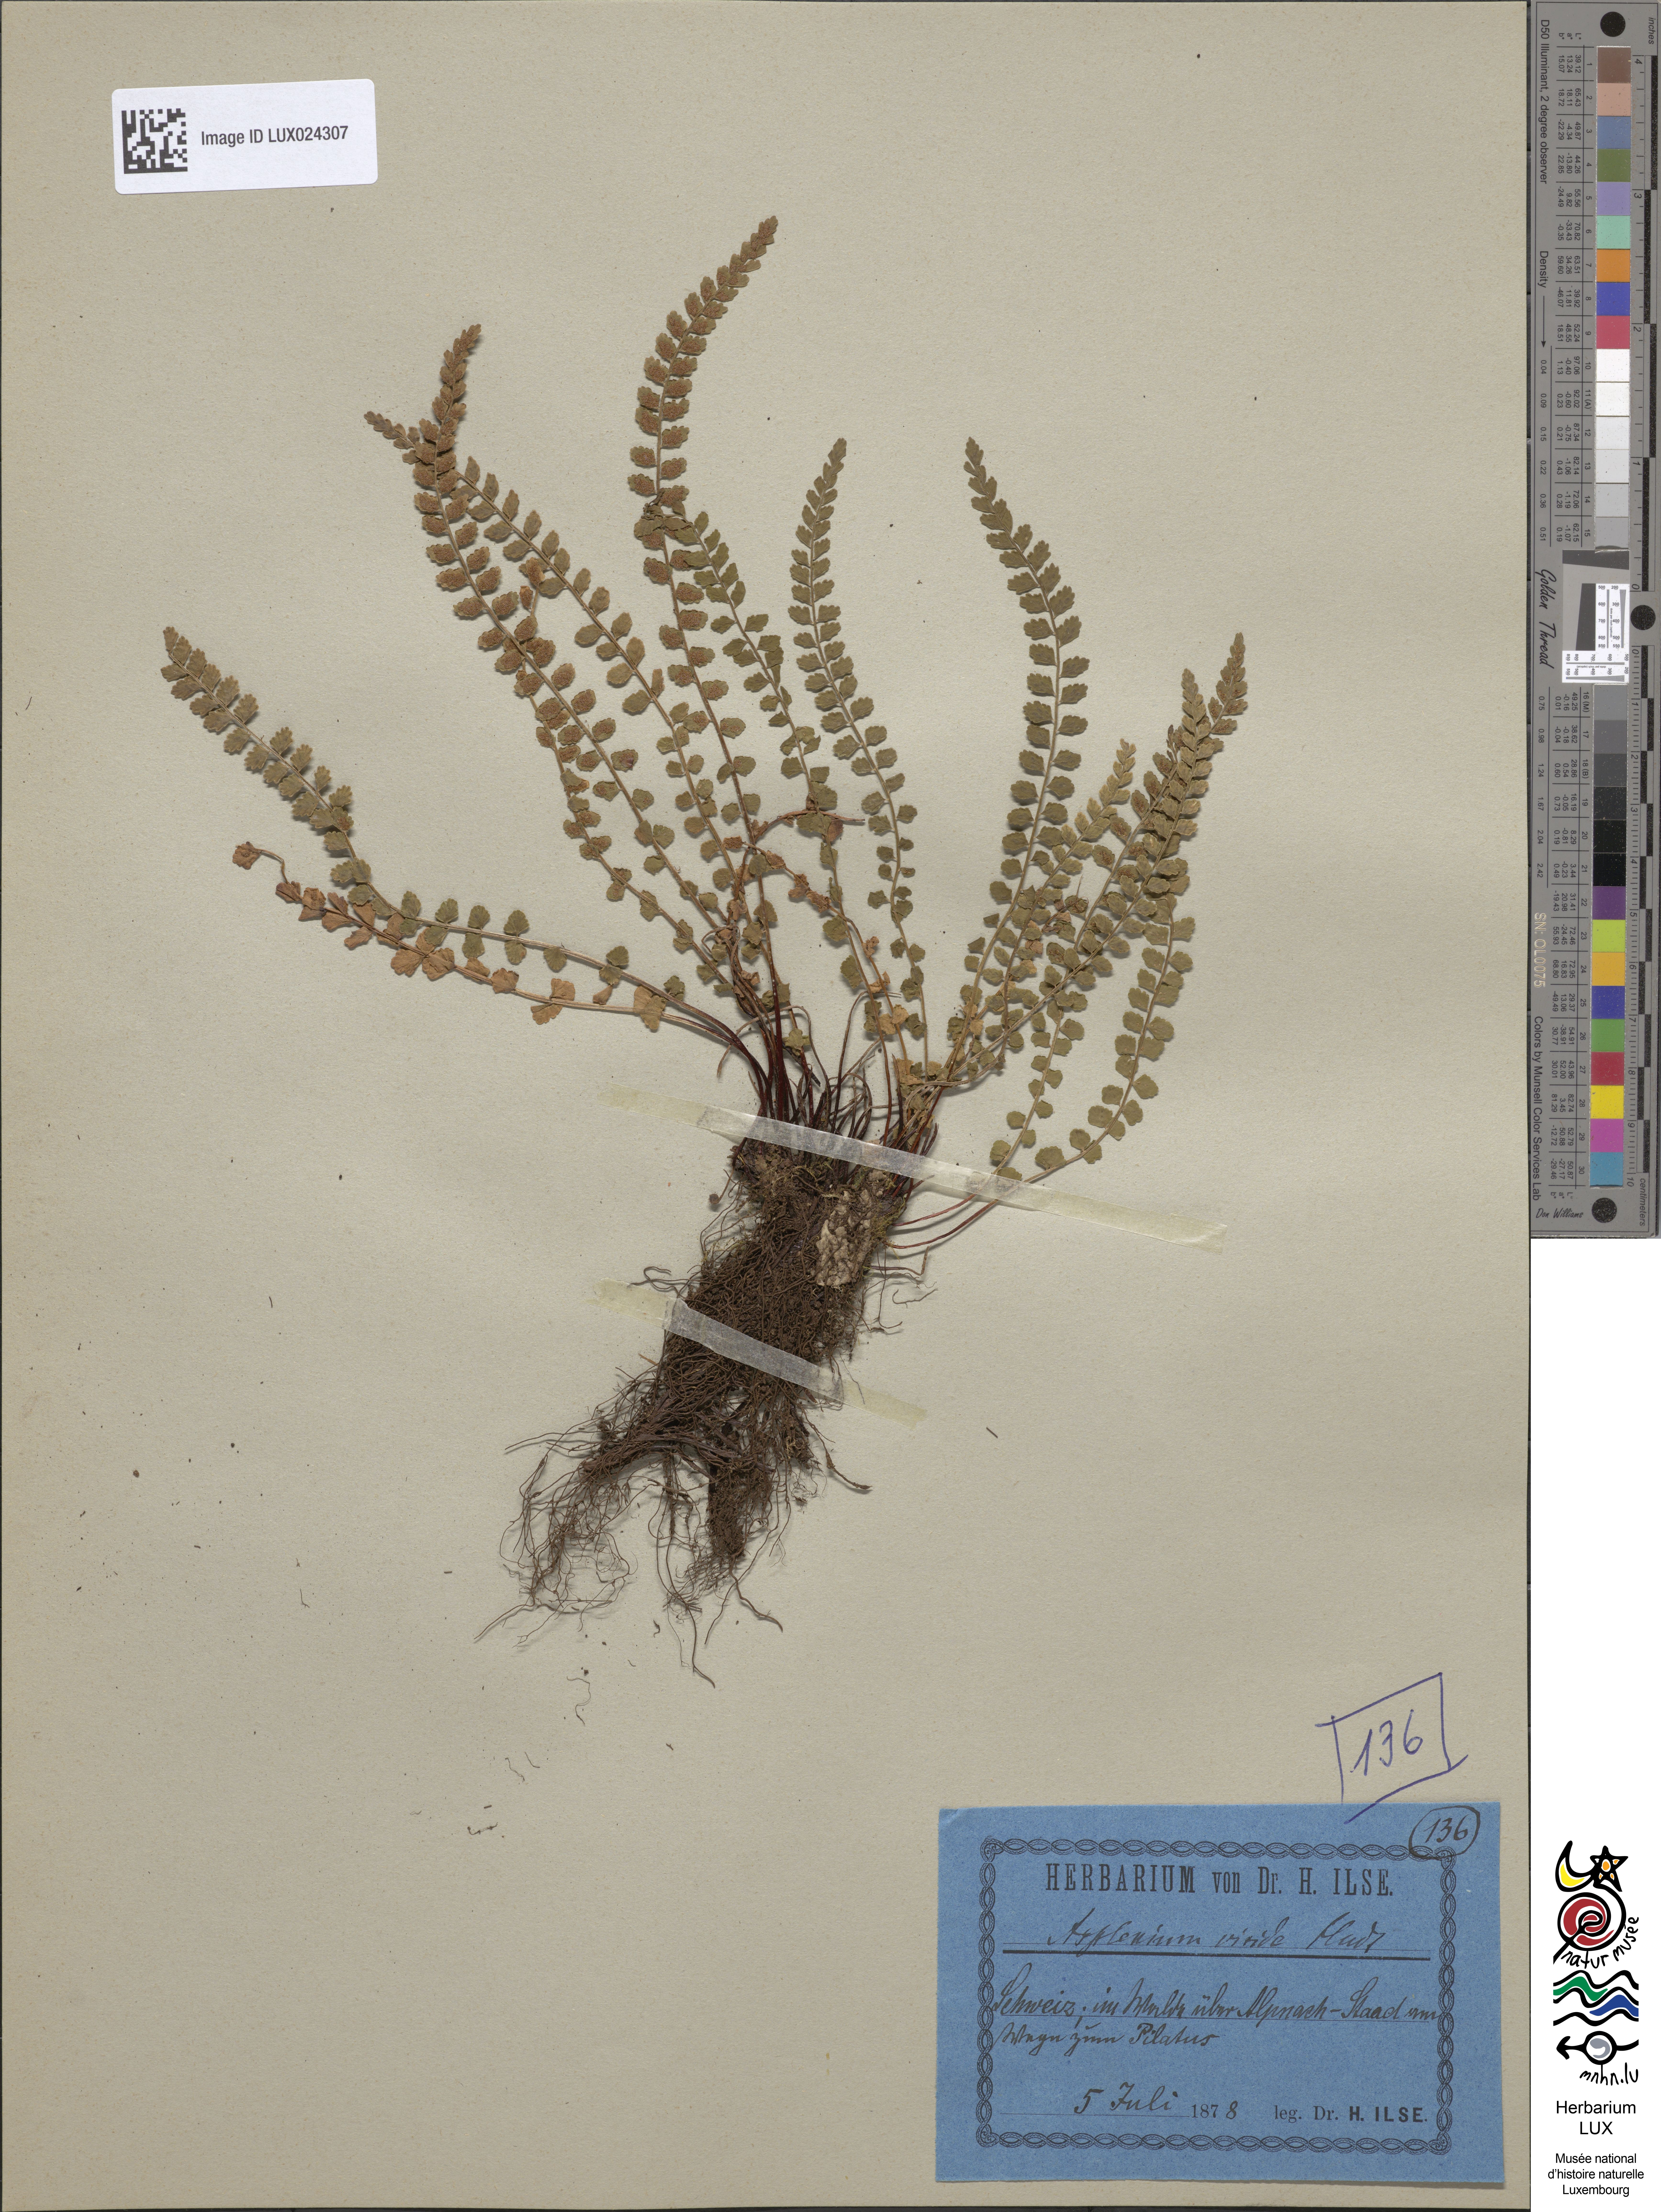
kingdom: Plantae
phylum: Tracheophyta
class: Polypodiopsida
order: Polypodiales
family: Aspleniaceae
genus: Asplenium
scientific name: Asplenium viride
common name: Green spleenwort
